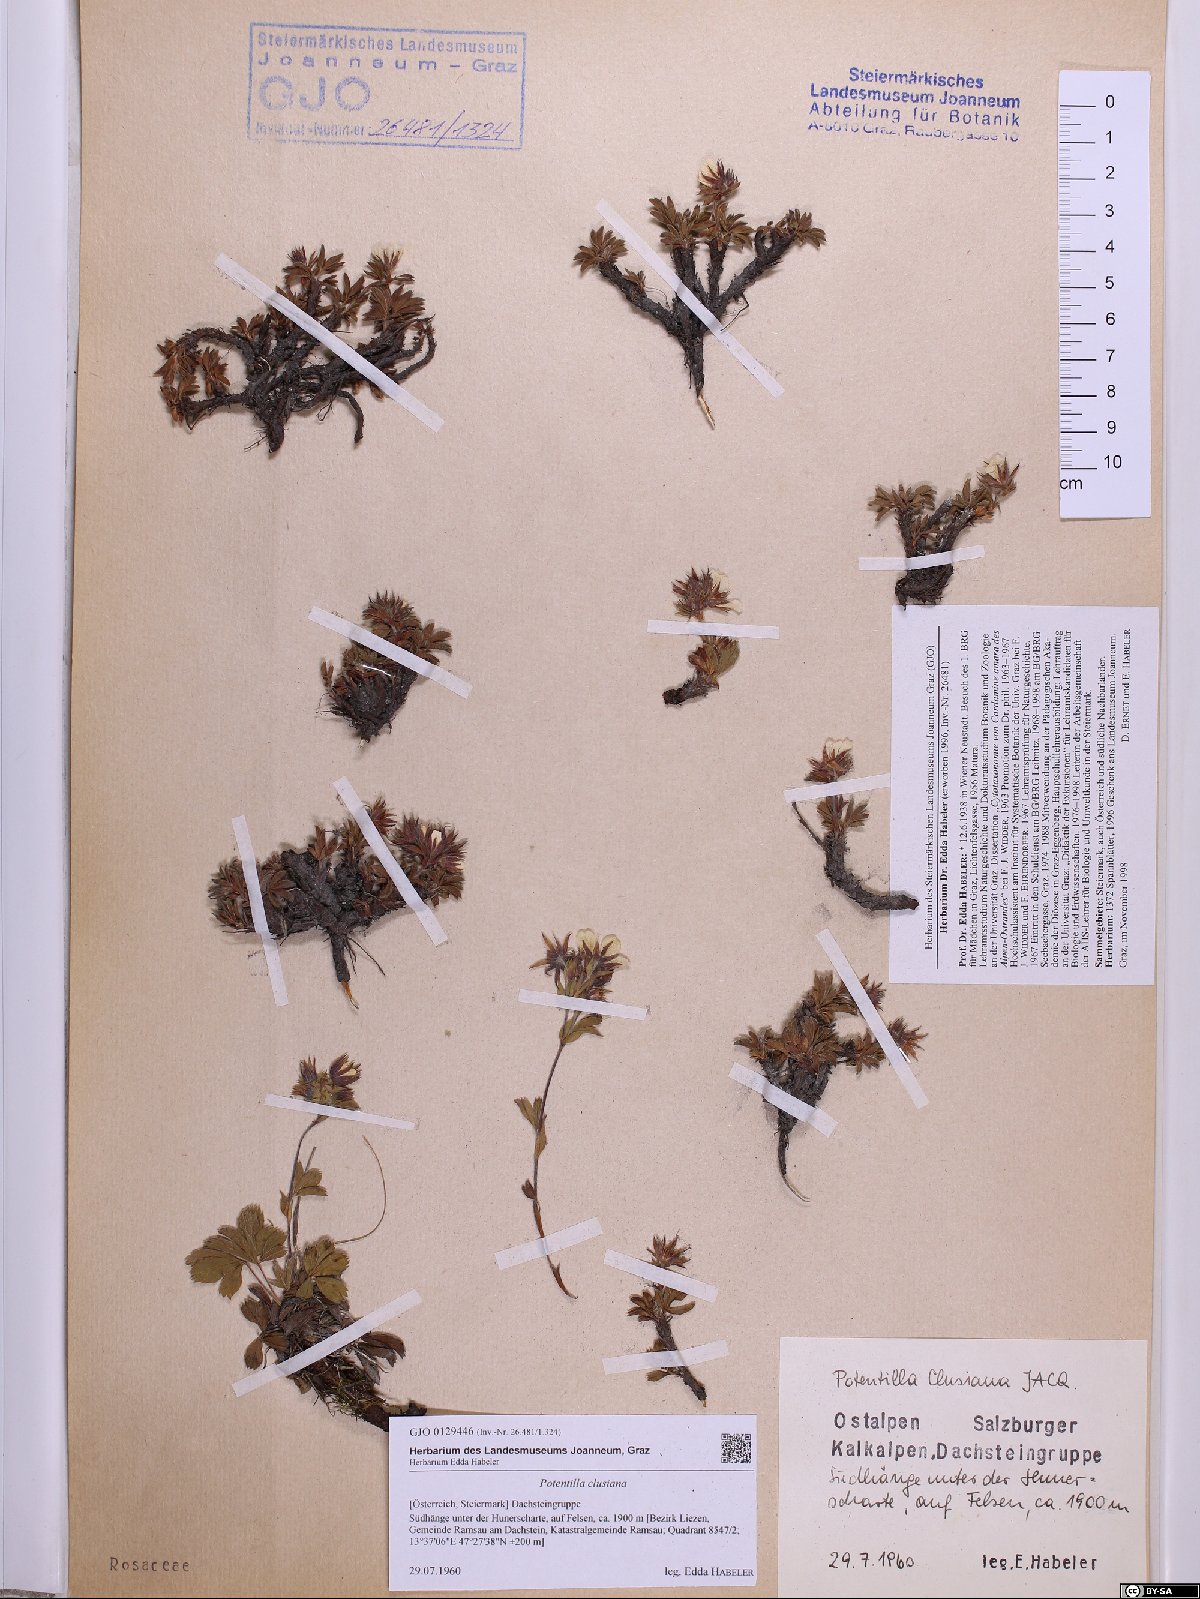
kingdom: Plantae
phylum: Tracheophyta
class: Magnoliopsida
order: Rosales
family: Rosaceae
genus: Potentilla
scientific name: Potentilla clusiana
